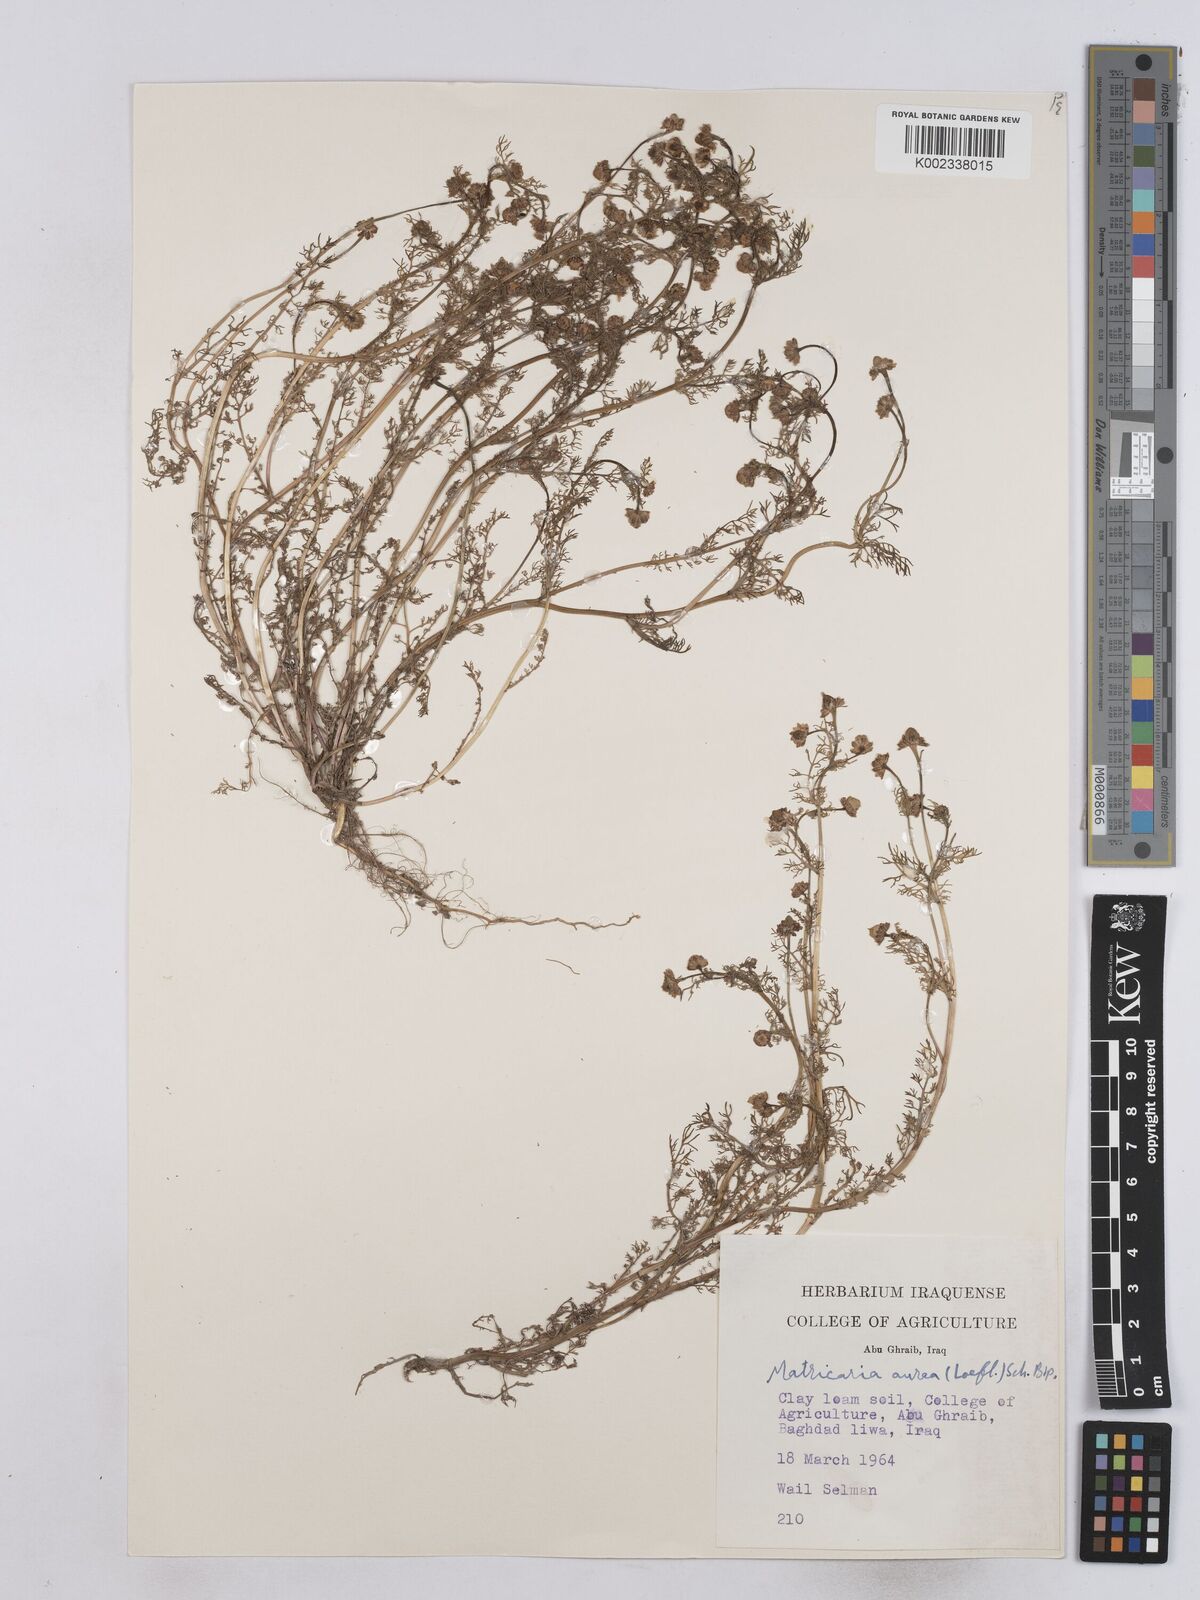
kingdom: Plantae
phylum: Tracheophyta
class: Magnoliopsida
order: Asterales
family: Asteraceae
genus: Matricaria
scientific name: Matricaria aurea
